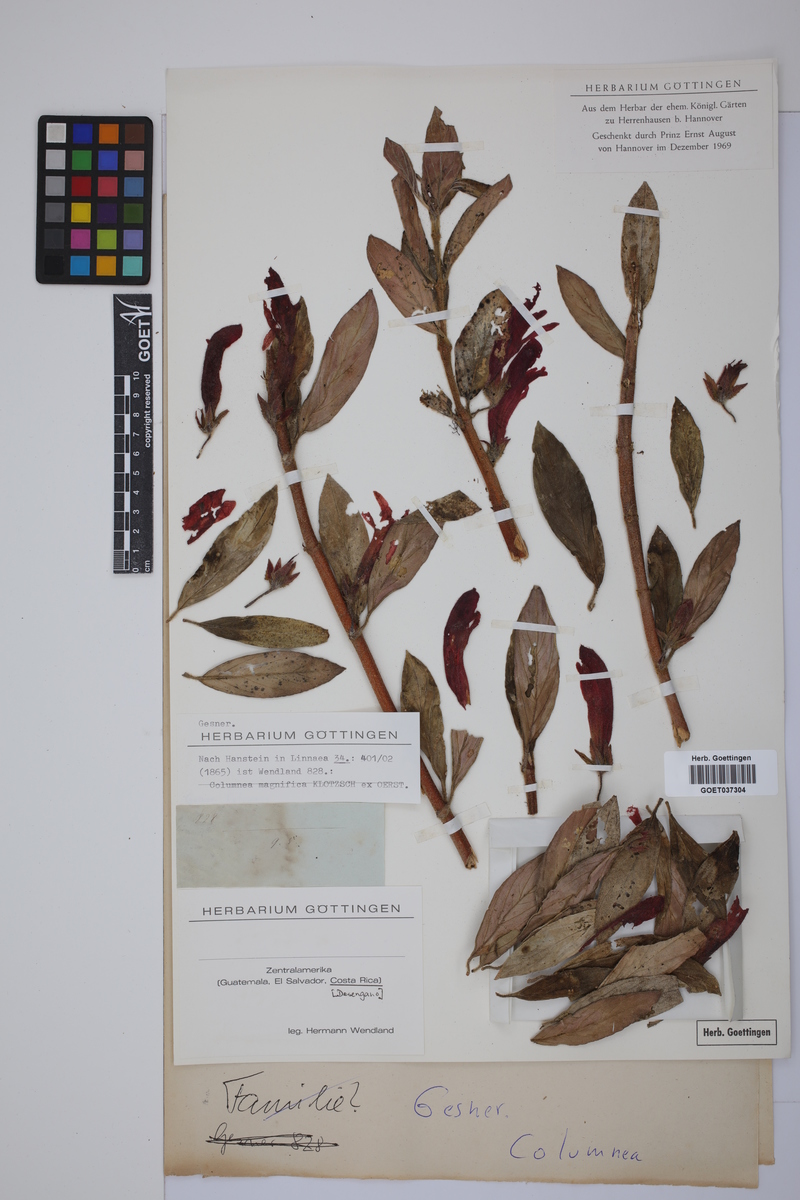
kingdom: Plantae
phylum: Tracheophyta
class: Magnoliopsida
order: Lamiales
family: Gesneriaceae
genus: Columnea
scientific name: Columnea magnifica
